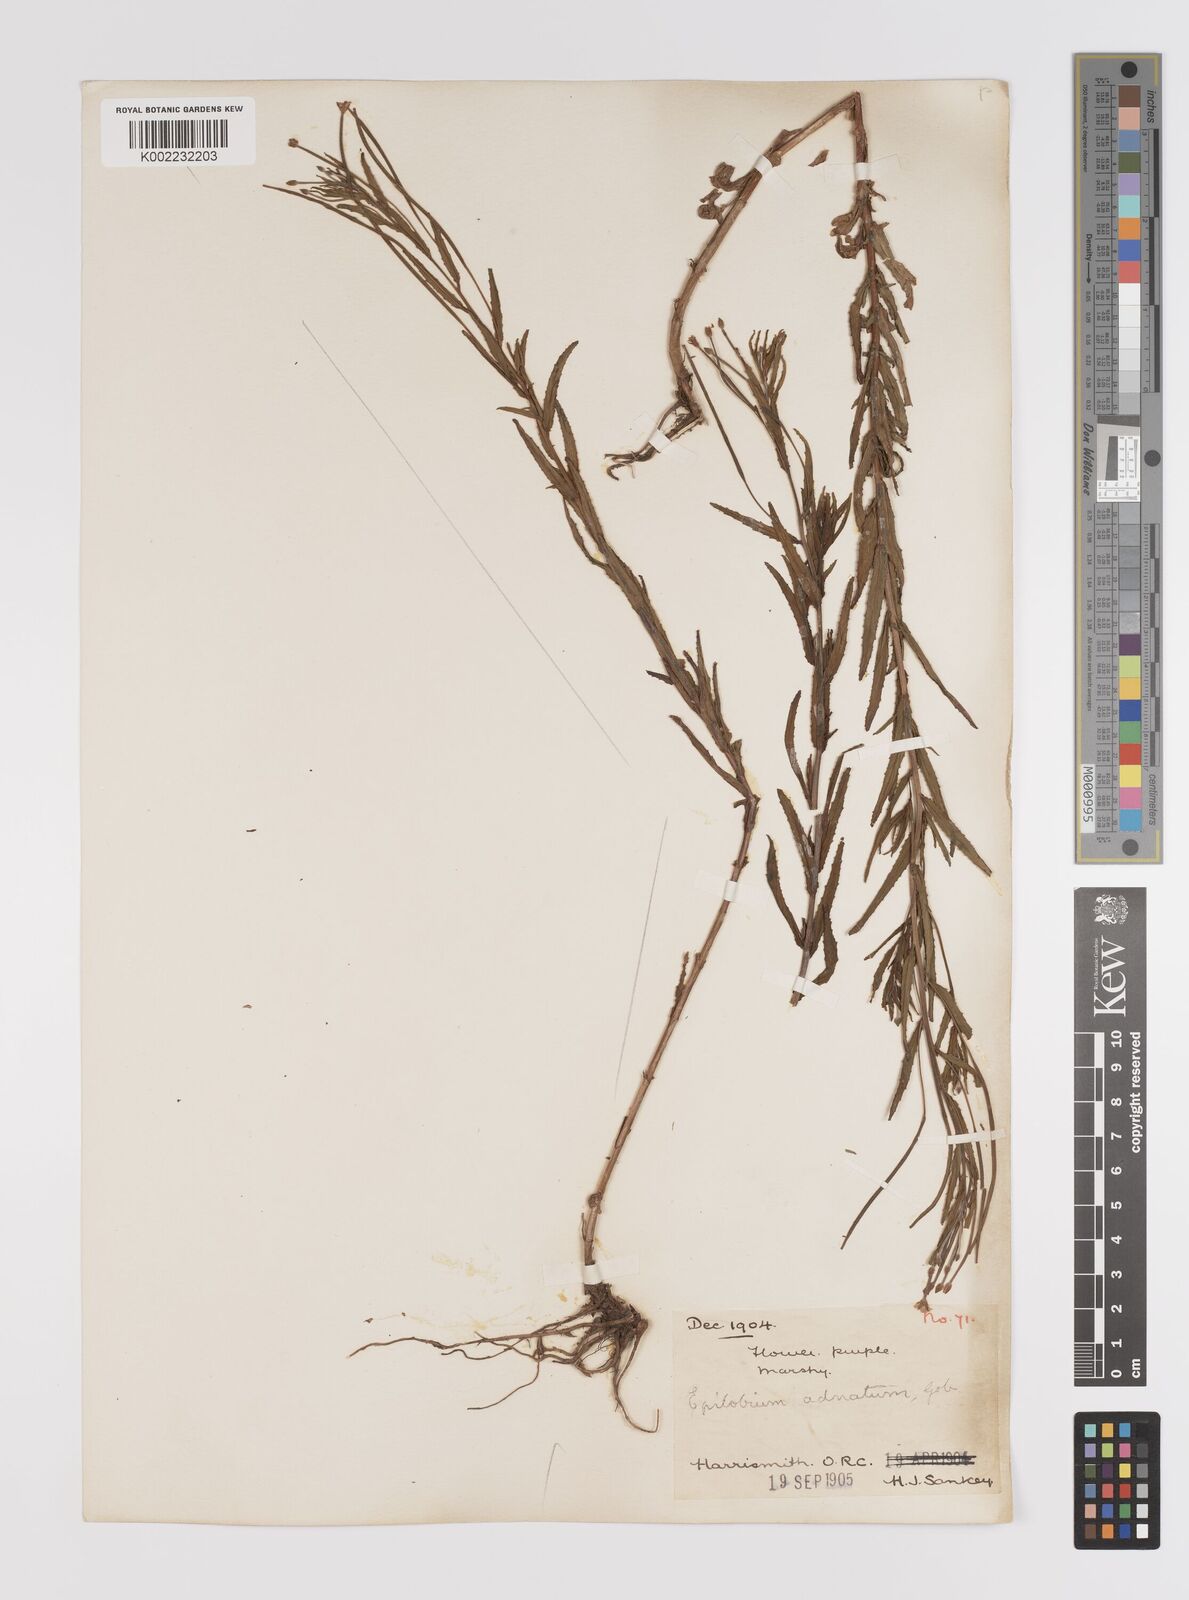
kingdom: Plantae
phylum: Tracheophyta
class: Magnoliopsida
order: Myrtales
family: Onagraceae
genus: Epilobium
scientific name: Epilobium tetragonum
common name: Square-stemmed willowherb
